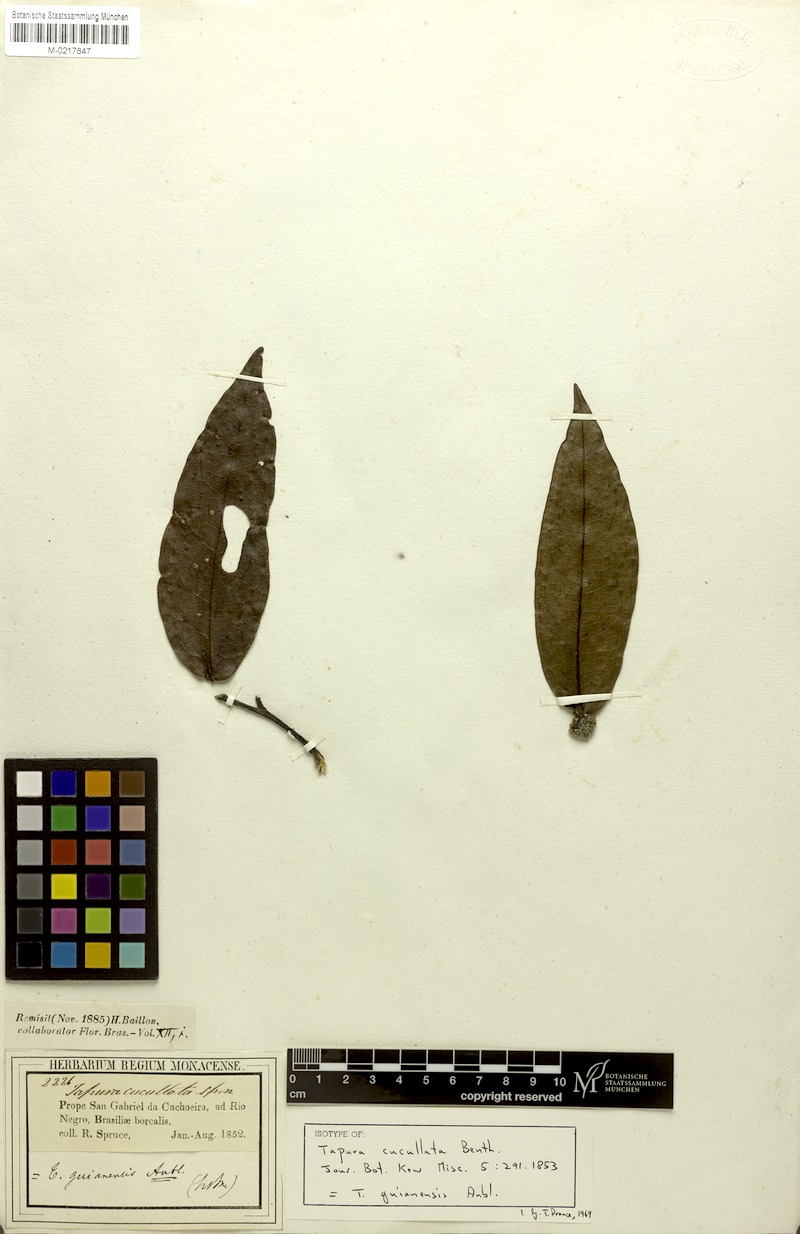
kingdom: Plantae
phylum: Tracheophyta
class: Magnoliopsida
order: Malpighiales
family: Dichapetalaceae
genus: Tapura
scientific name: Tapura guianensis
